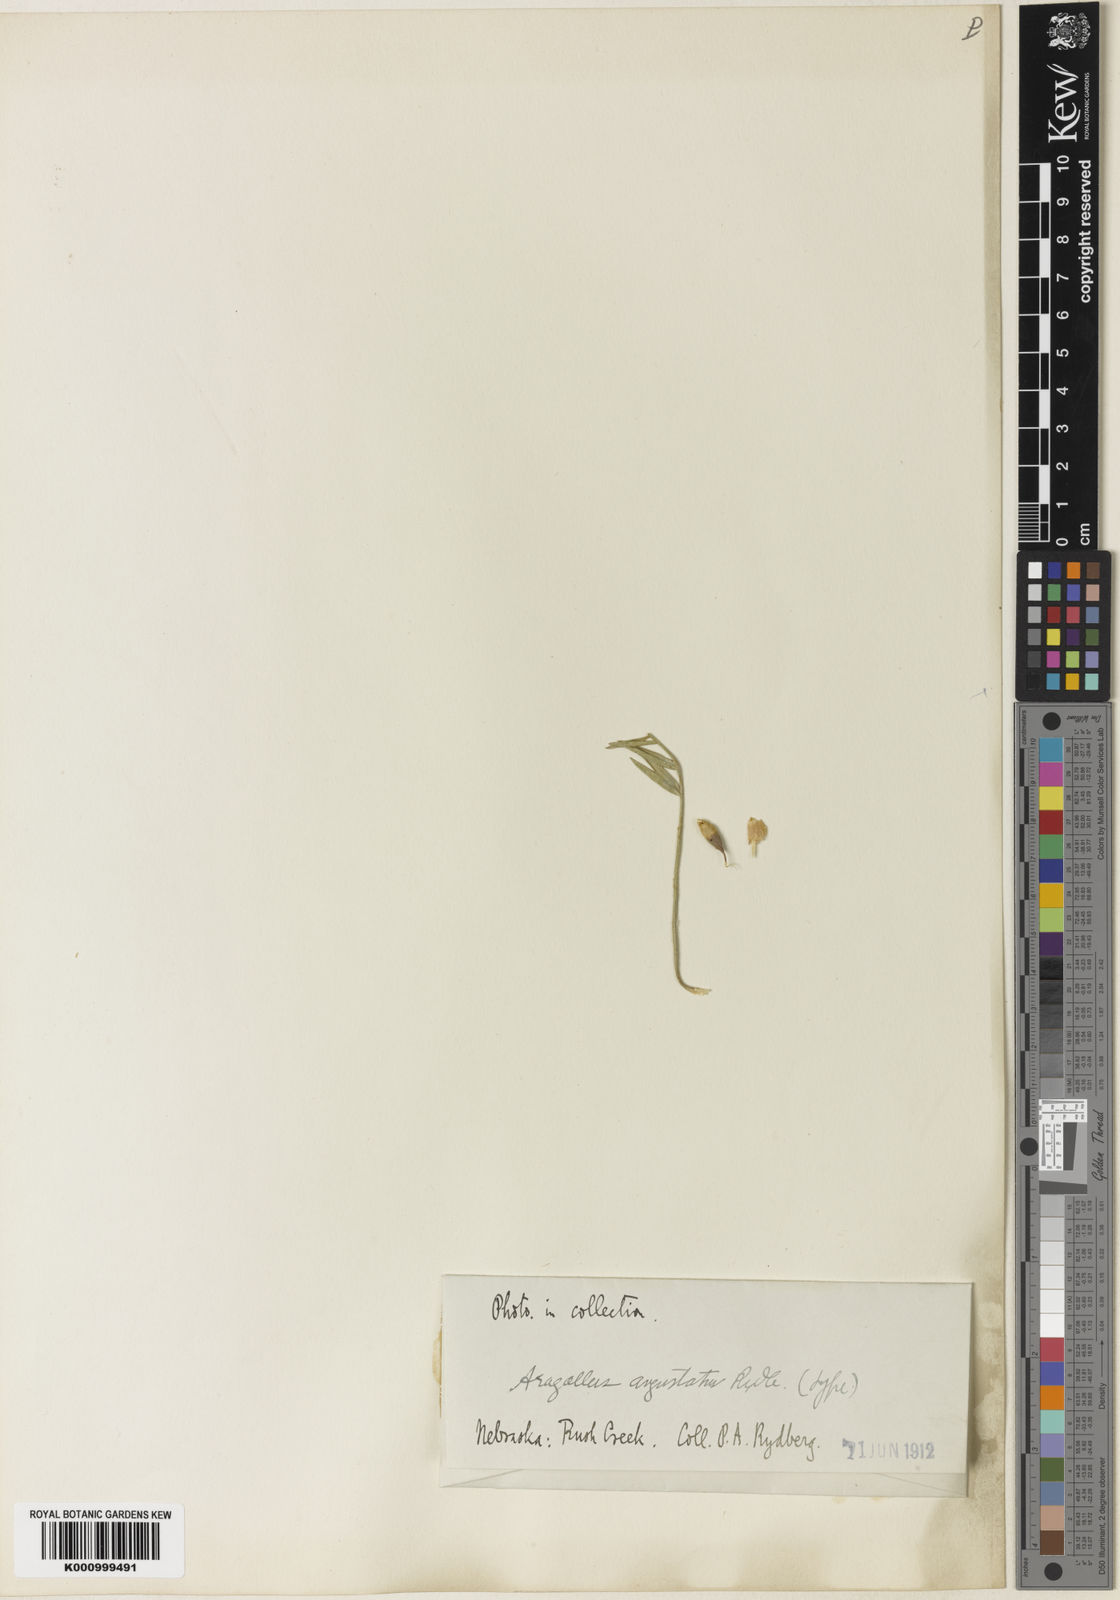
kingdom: Plantae
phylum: Tracheophyta
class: Magnoliopsida
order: Fabales
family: Fabaceae
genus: Astragalus
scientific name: Astragalus ruscifolius
